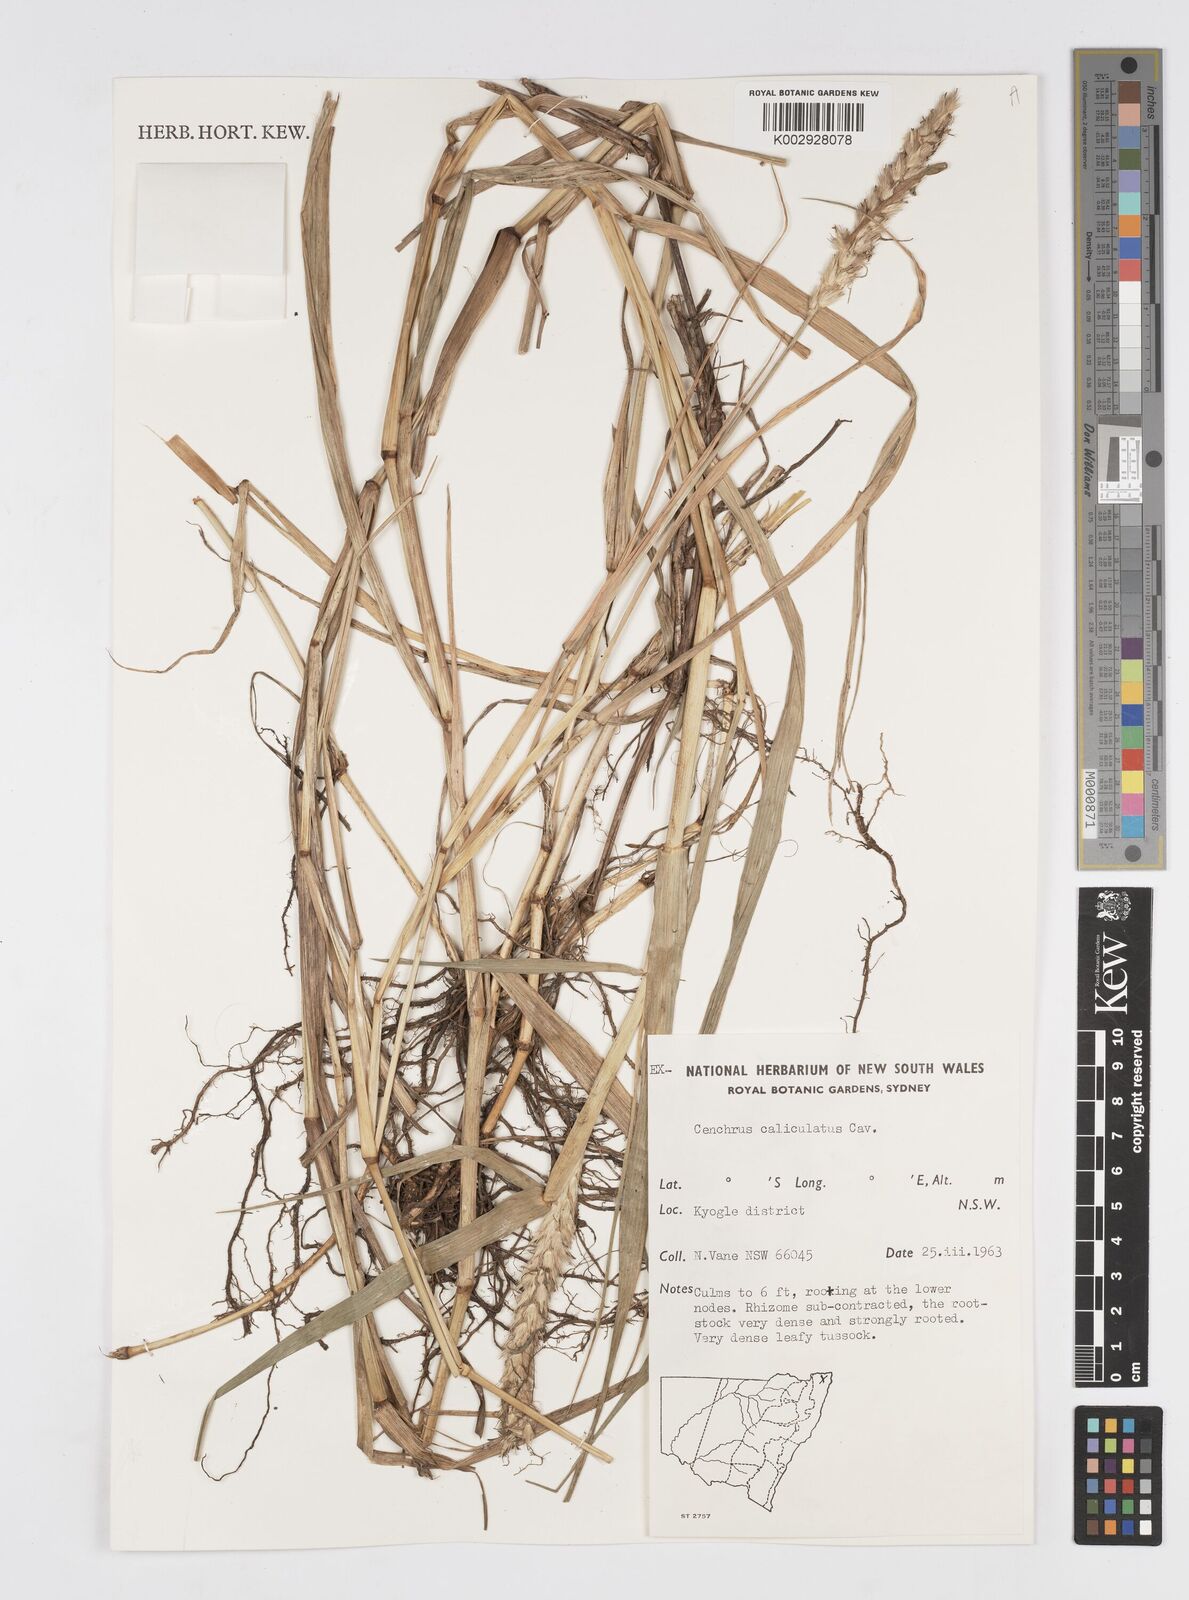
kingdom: Plantae
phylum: Tracheophyta
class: Liliopsida
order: Poales
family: Poaceae
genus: Cenchrus
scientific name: Cenchrus caliculatus
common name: Large bur grass
